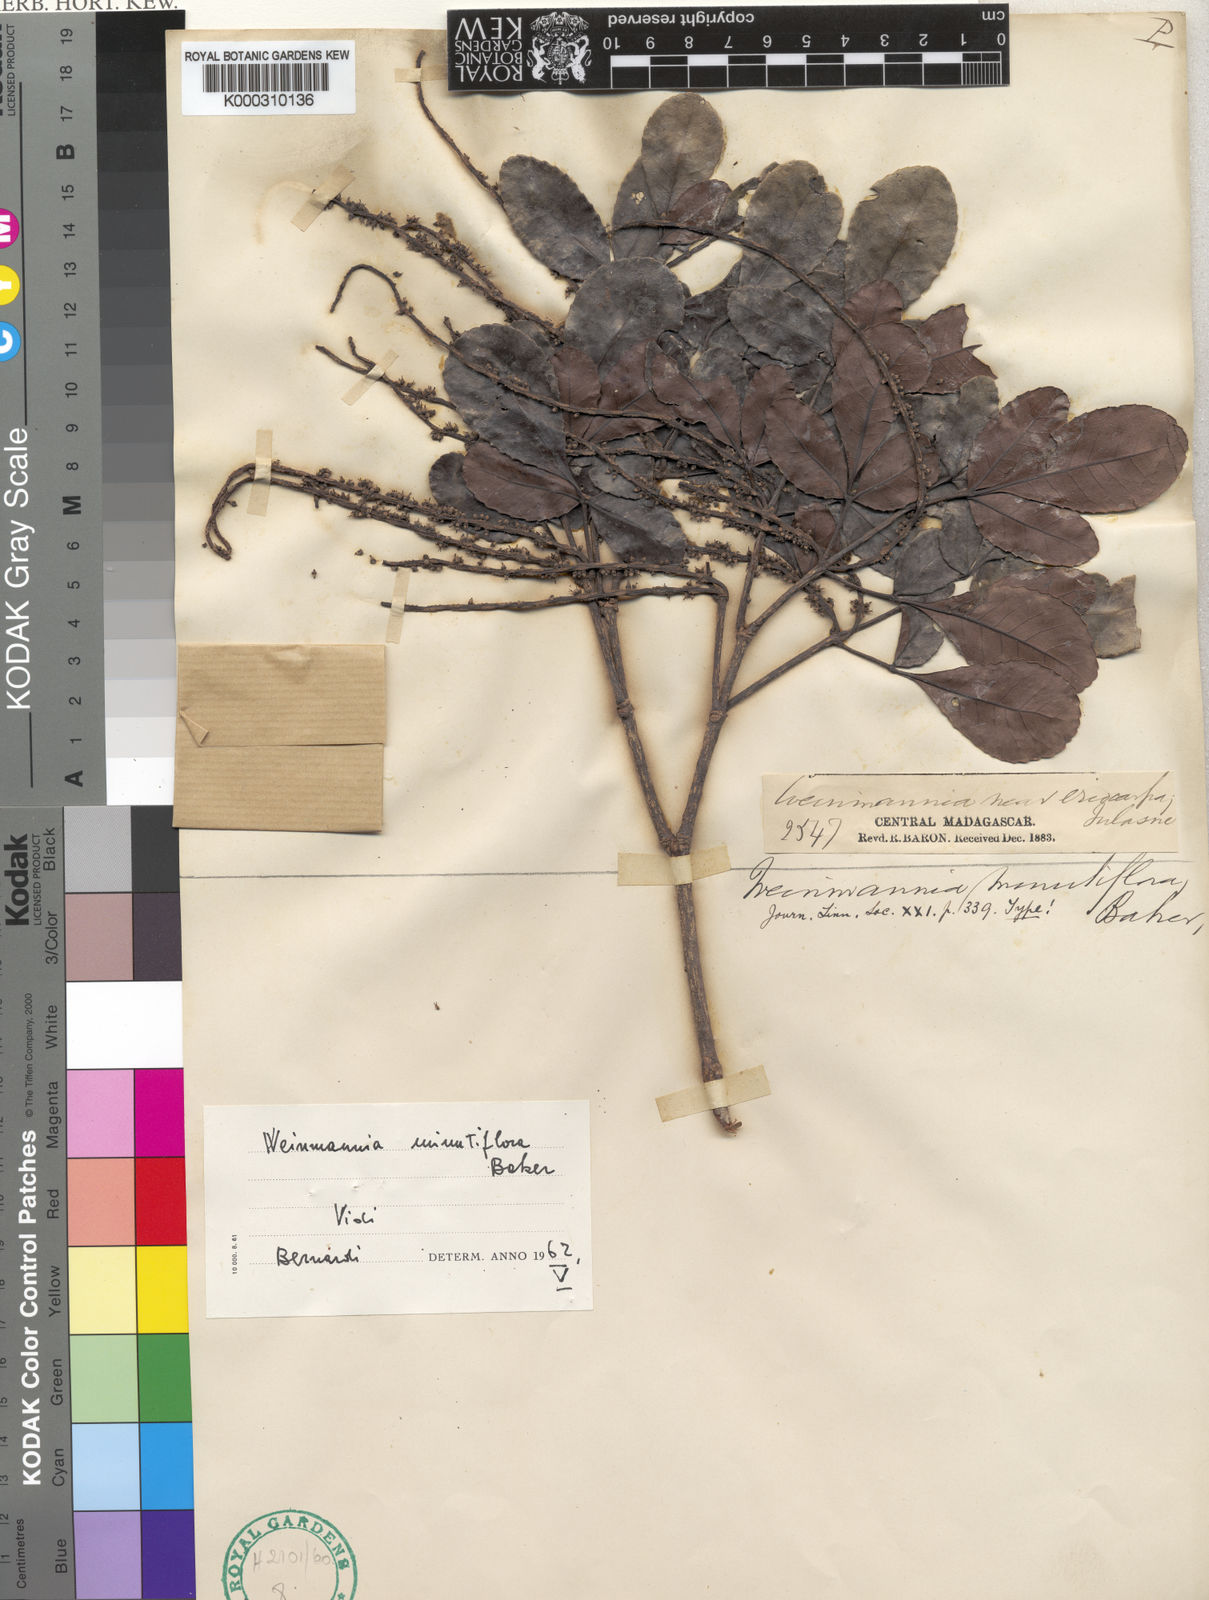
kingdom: Plantae
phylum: Tracheophyta
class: Magnoliopsida
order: Oxalidales
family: Cunoniaceae
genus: Pterophylla
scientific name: Pterophylla minutiflora
